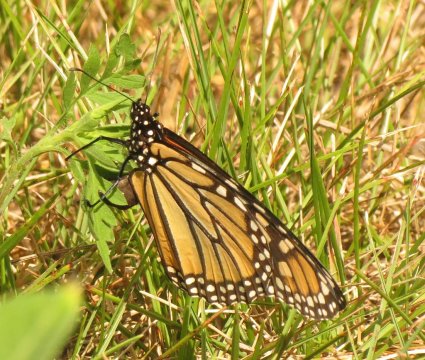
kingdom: Animalia
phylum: Arthropoda
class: Insecta
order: Lepidoptera
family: Nymphalidae
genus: Danaus
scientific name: Danaus plexippus
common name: Monarch
